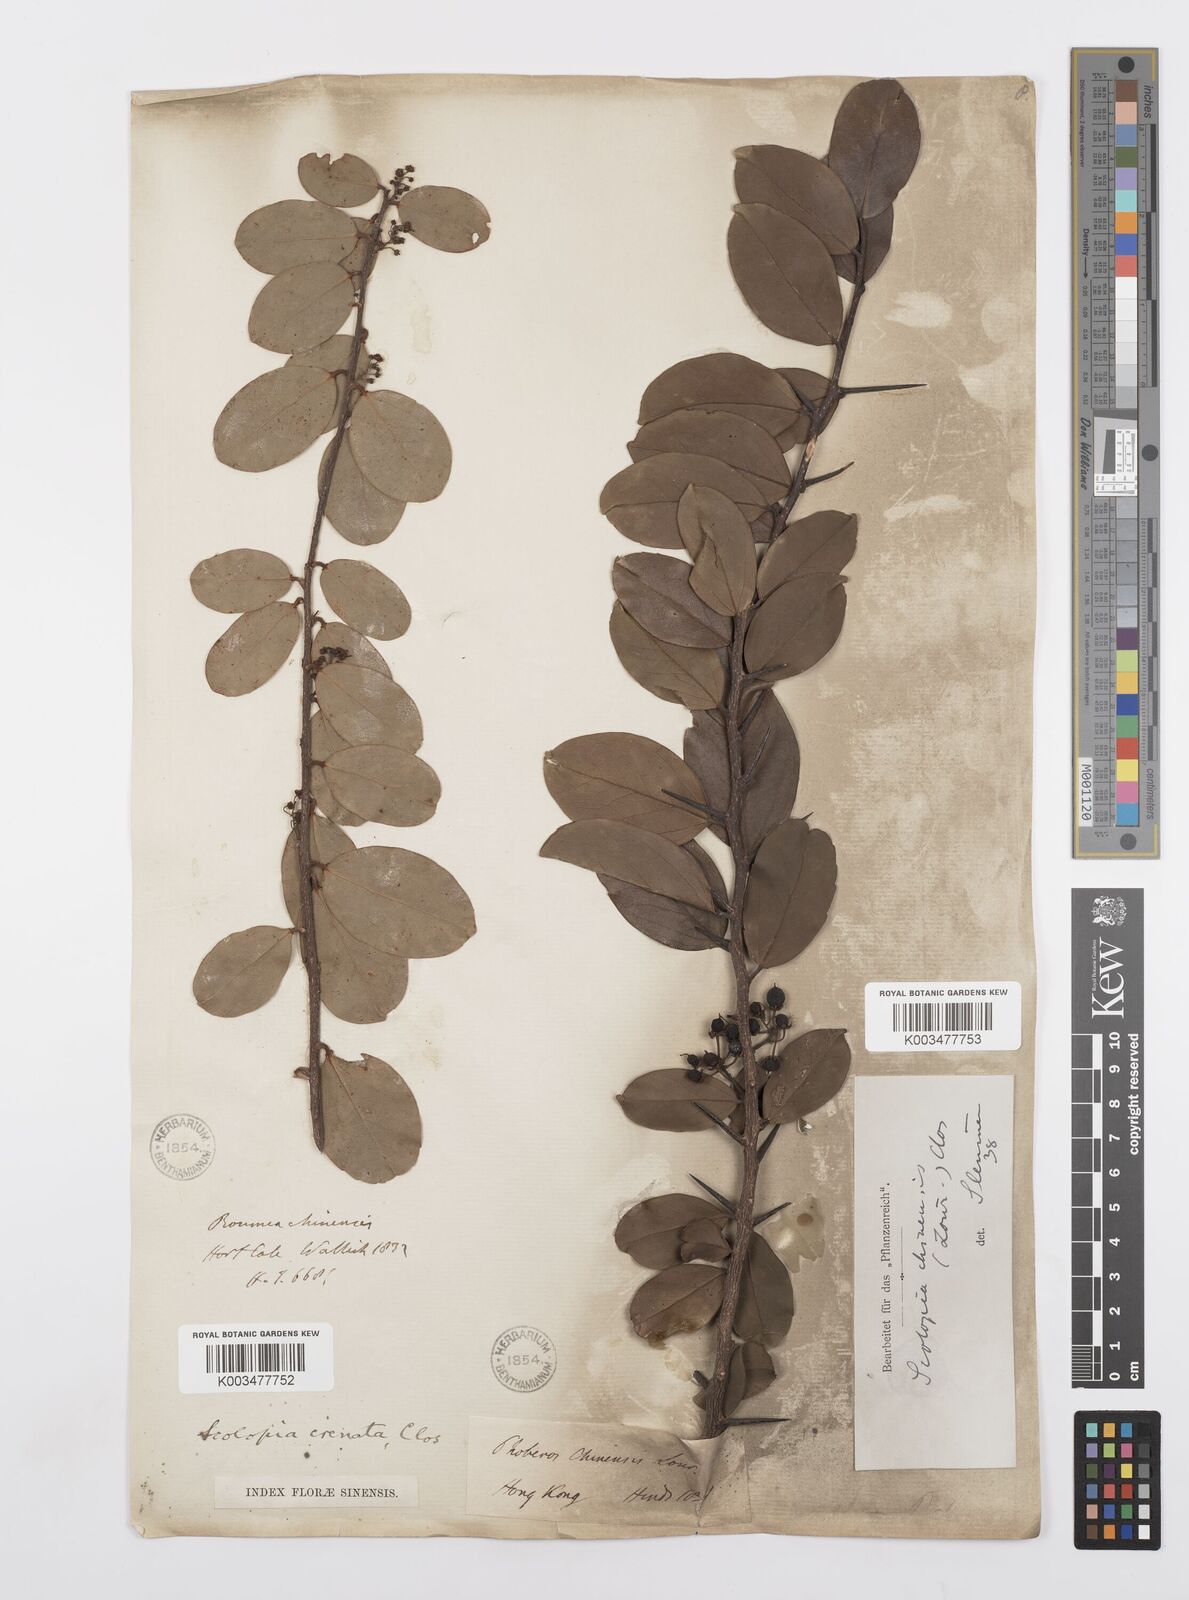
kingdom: Plantae
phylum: Tracheophyta
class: Magnoliopsida
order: Malpighiales
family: Salicaceae
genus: Scolopia
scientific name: Scolopia chinensis
